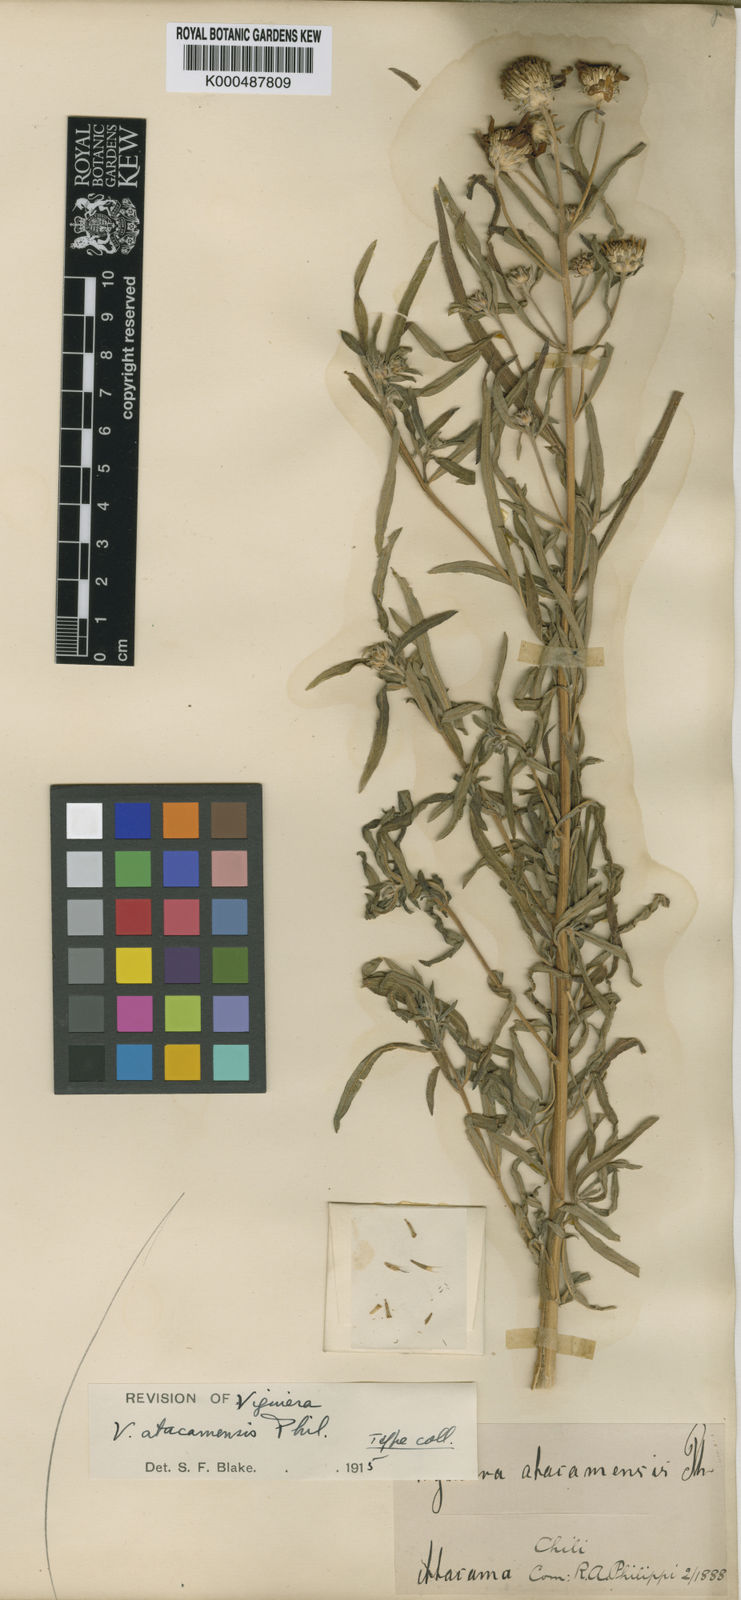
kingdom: Plantae
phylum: Tracheophyta
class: Magnoliopsida
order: Asterales
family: Asteraceae
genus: Aldama
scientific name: Aldama atacamensis
